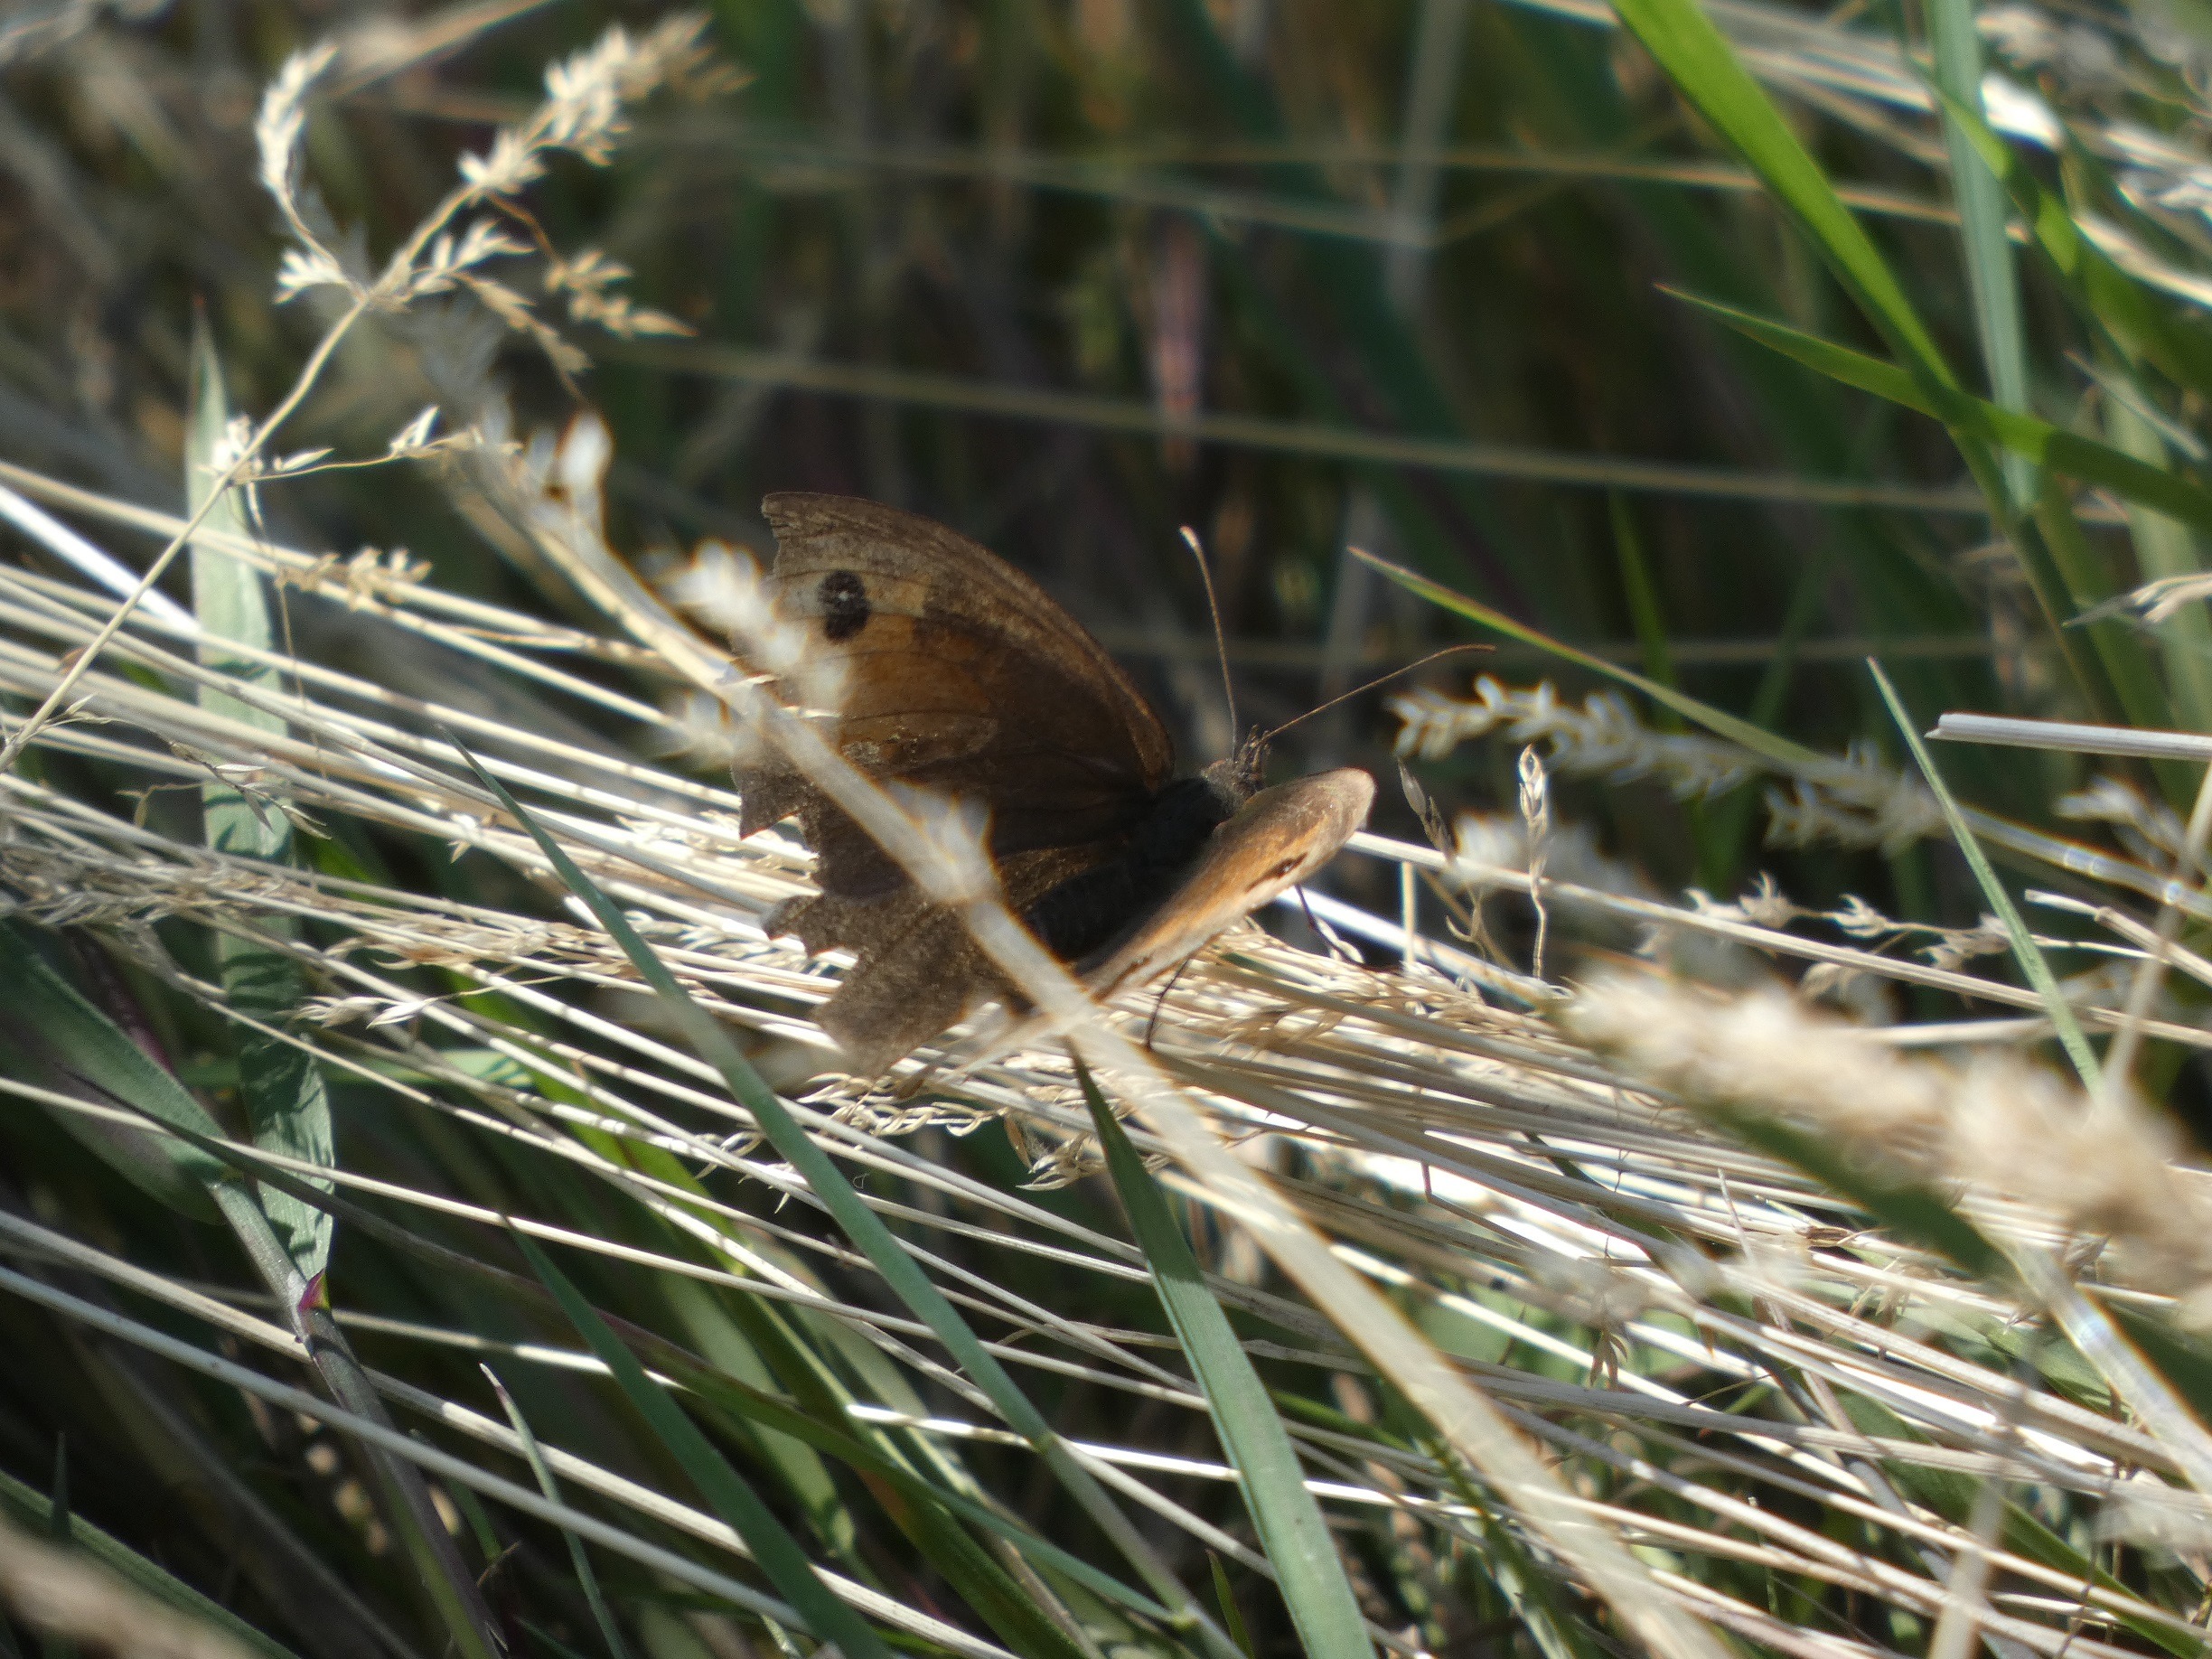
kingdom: Animalia
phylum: Arthropoda
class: Insecta
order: Lepidoptera
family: Nymphalidae
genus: Maniola
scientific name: Maniola jurtina
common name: Græsrandøje
